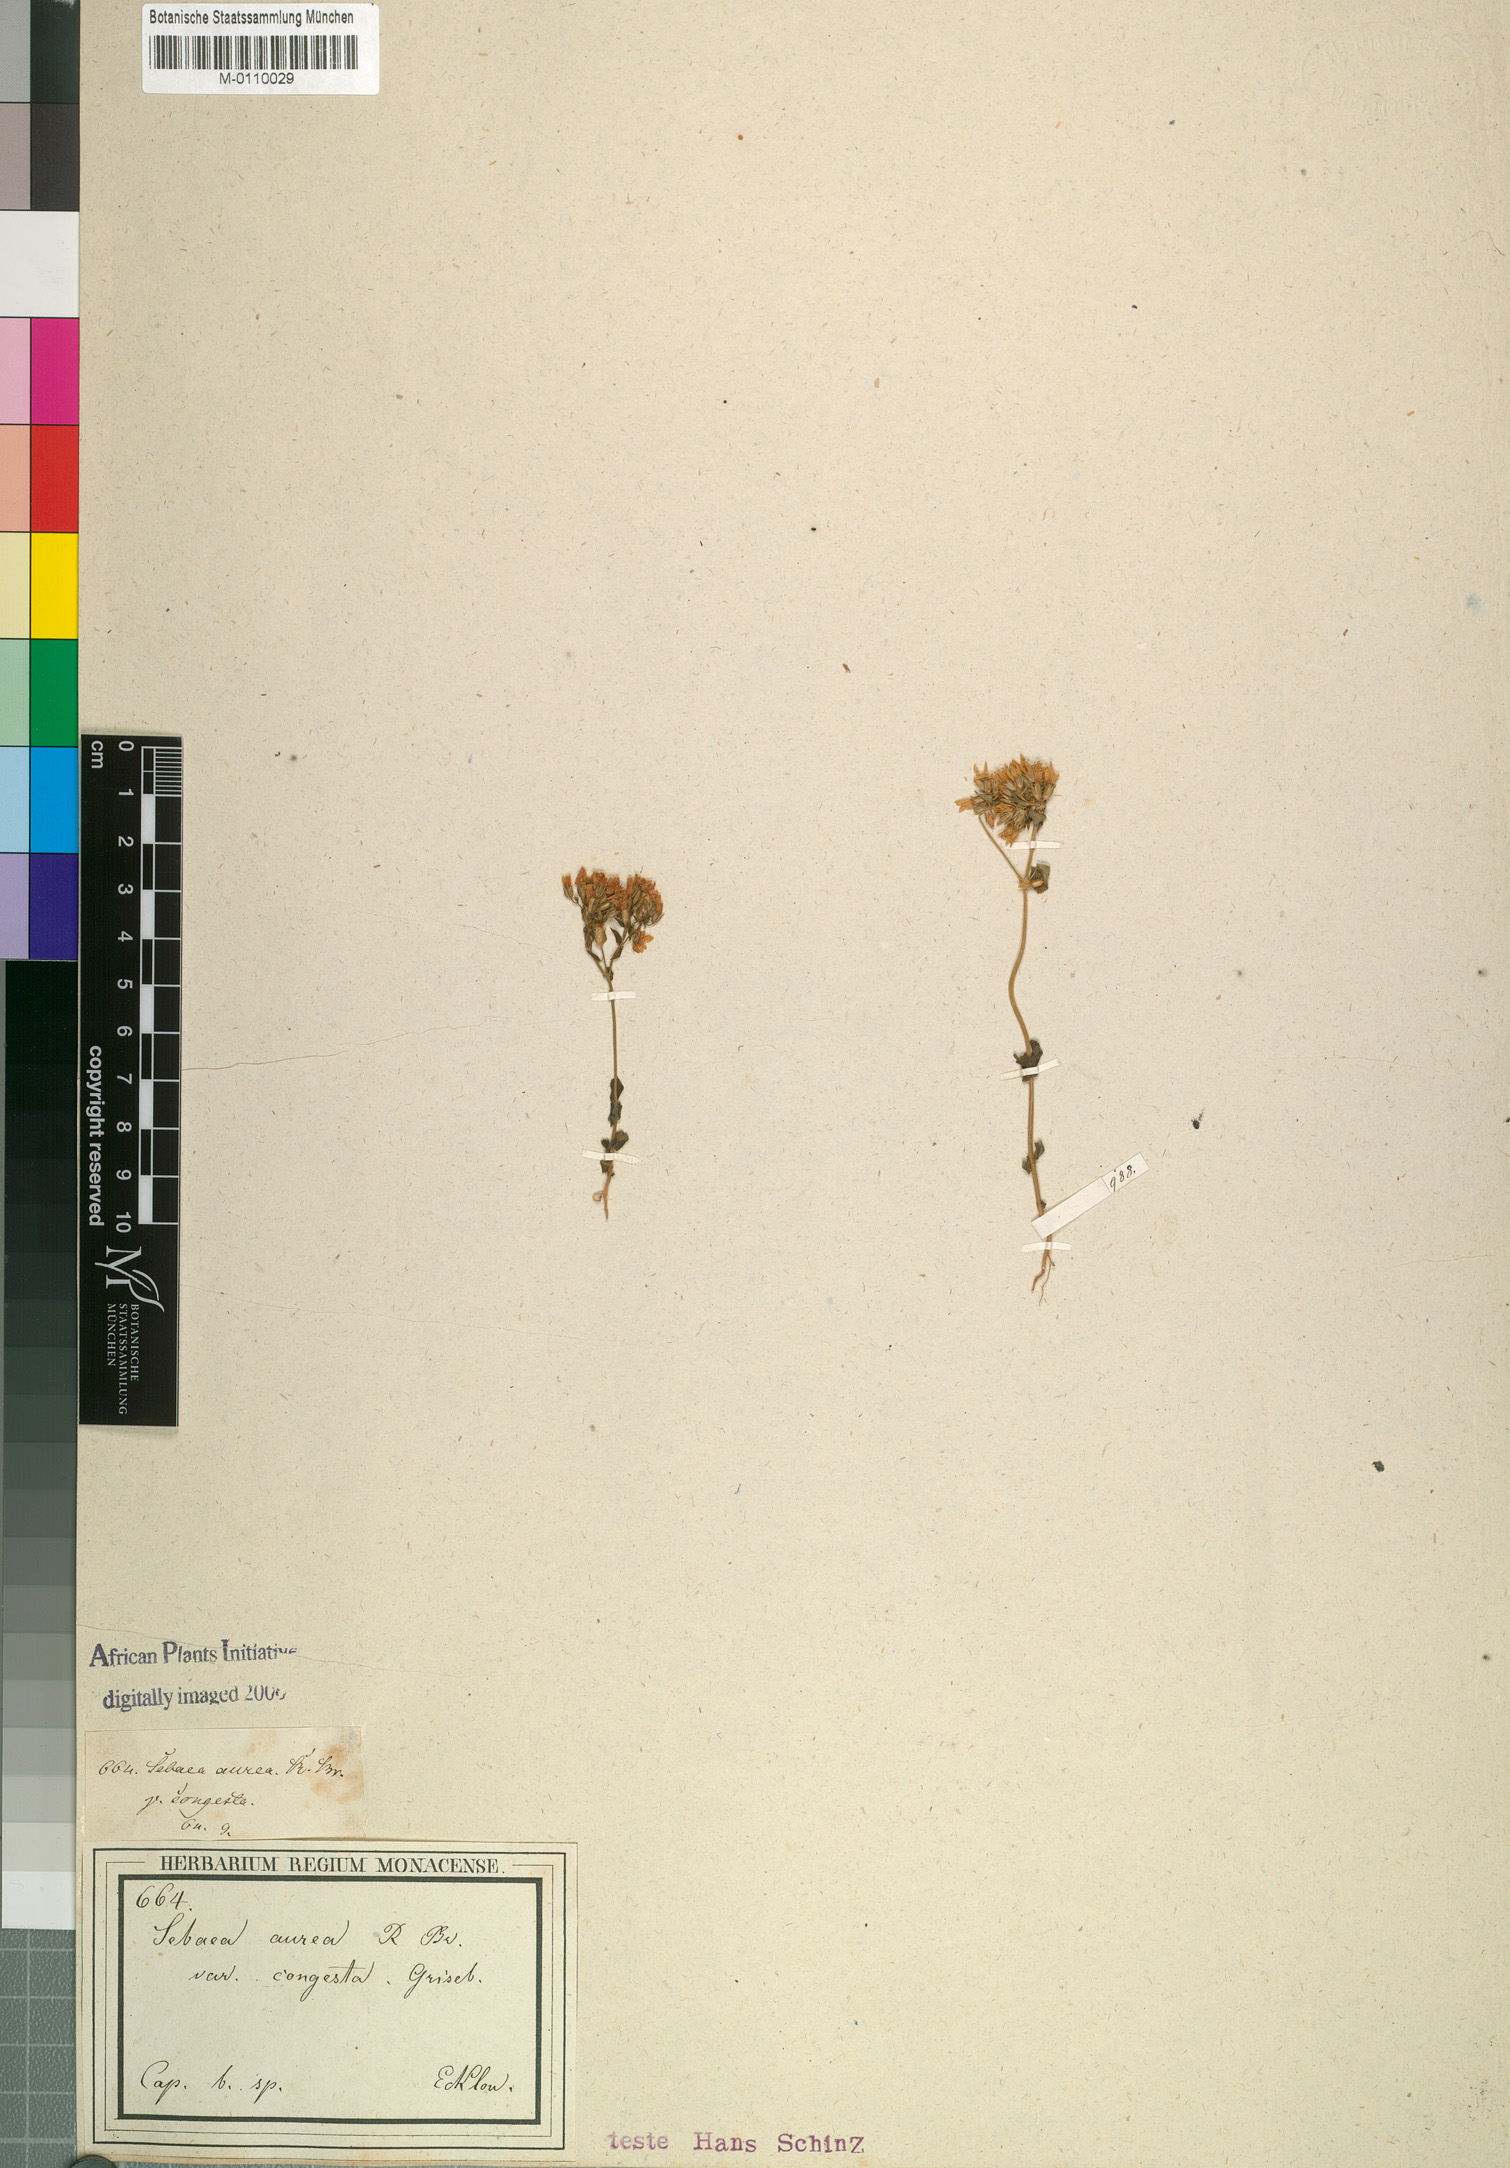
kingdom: Plantae
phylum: Tracheophyta
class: Magnoliopsida
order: Gentianales
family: Gentianaceae
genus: Sebaea
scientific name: Sebaea aurea
